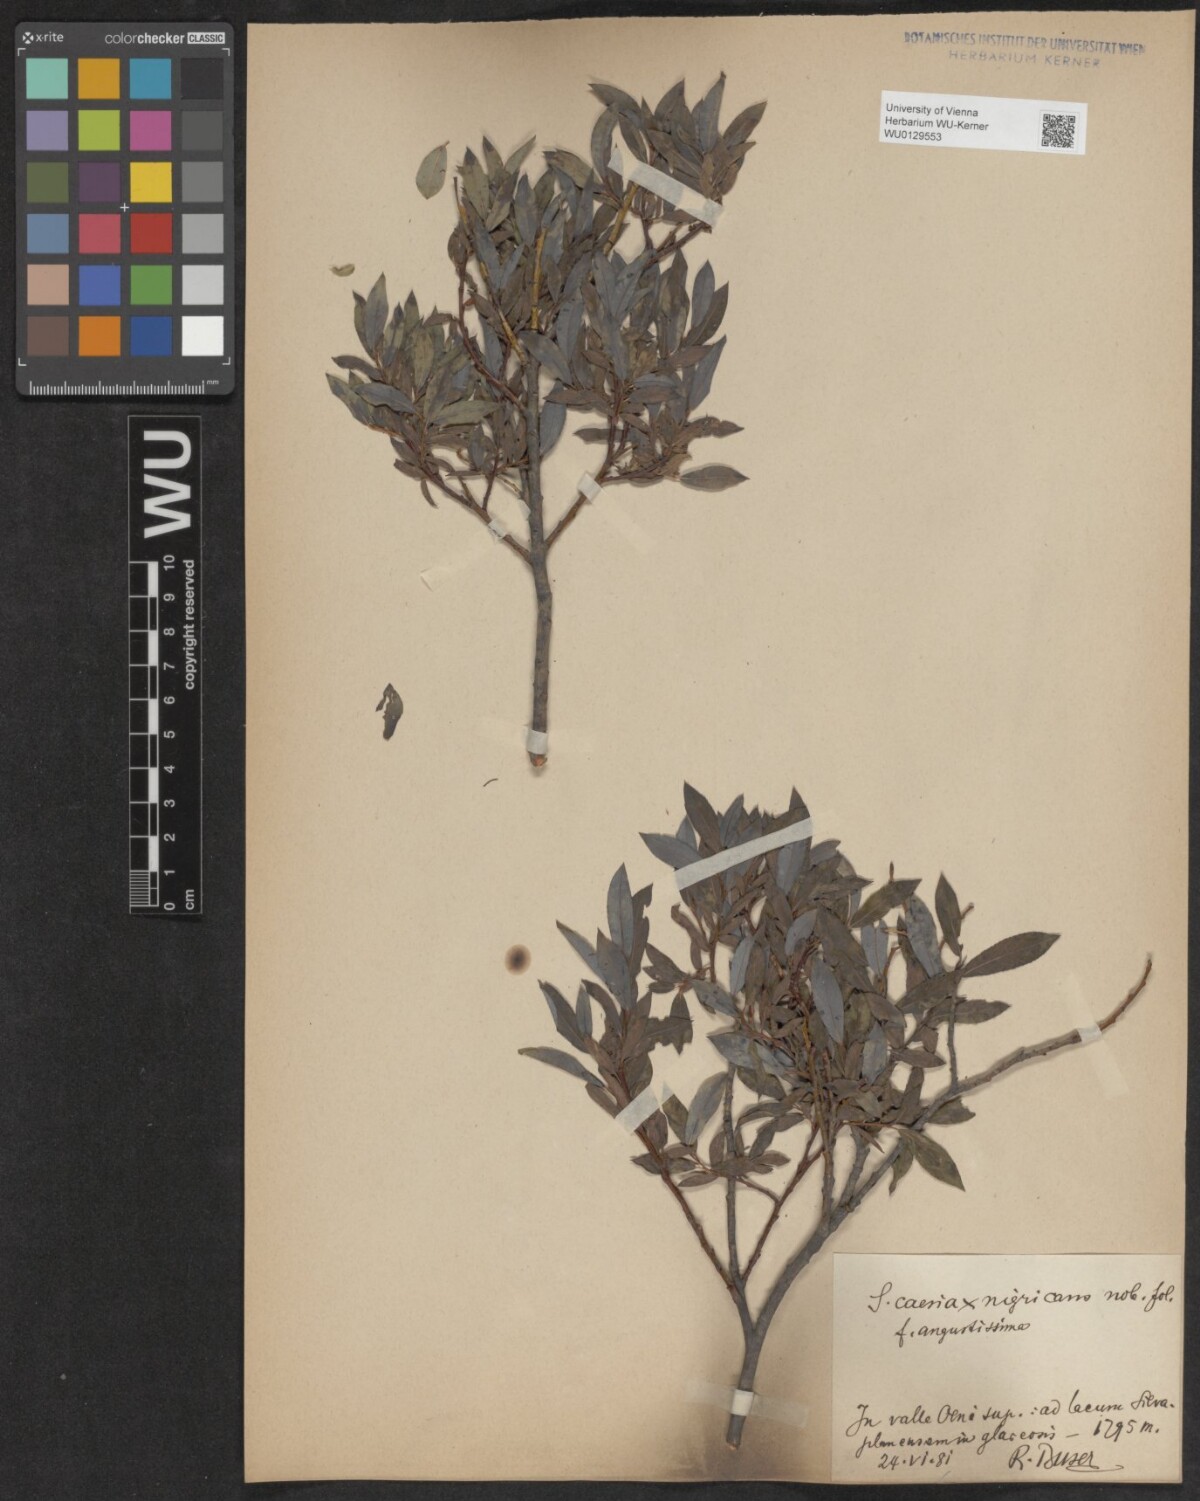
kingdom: Plantae
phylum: Tracheophyta
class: Magnoliopsida
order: Malpighiales
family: Salicaceae
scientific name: Salicaceae
